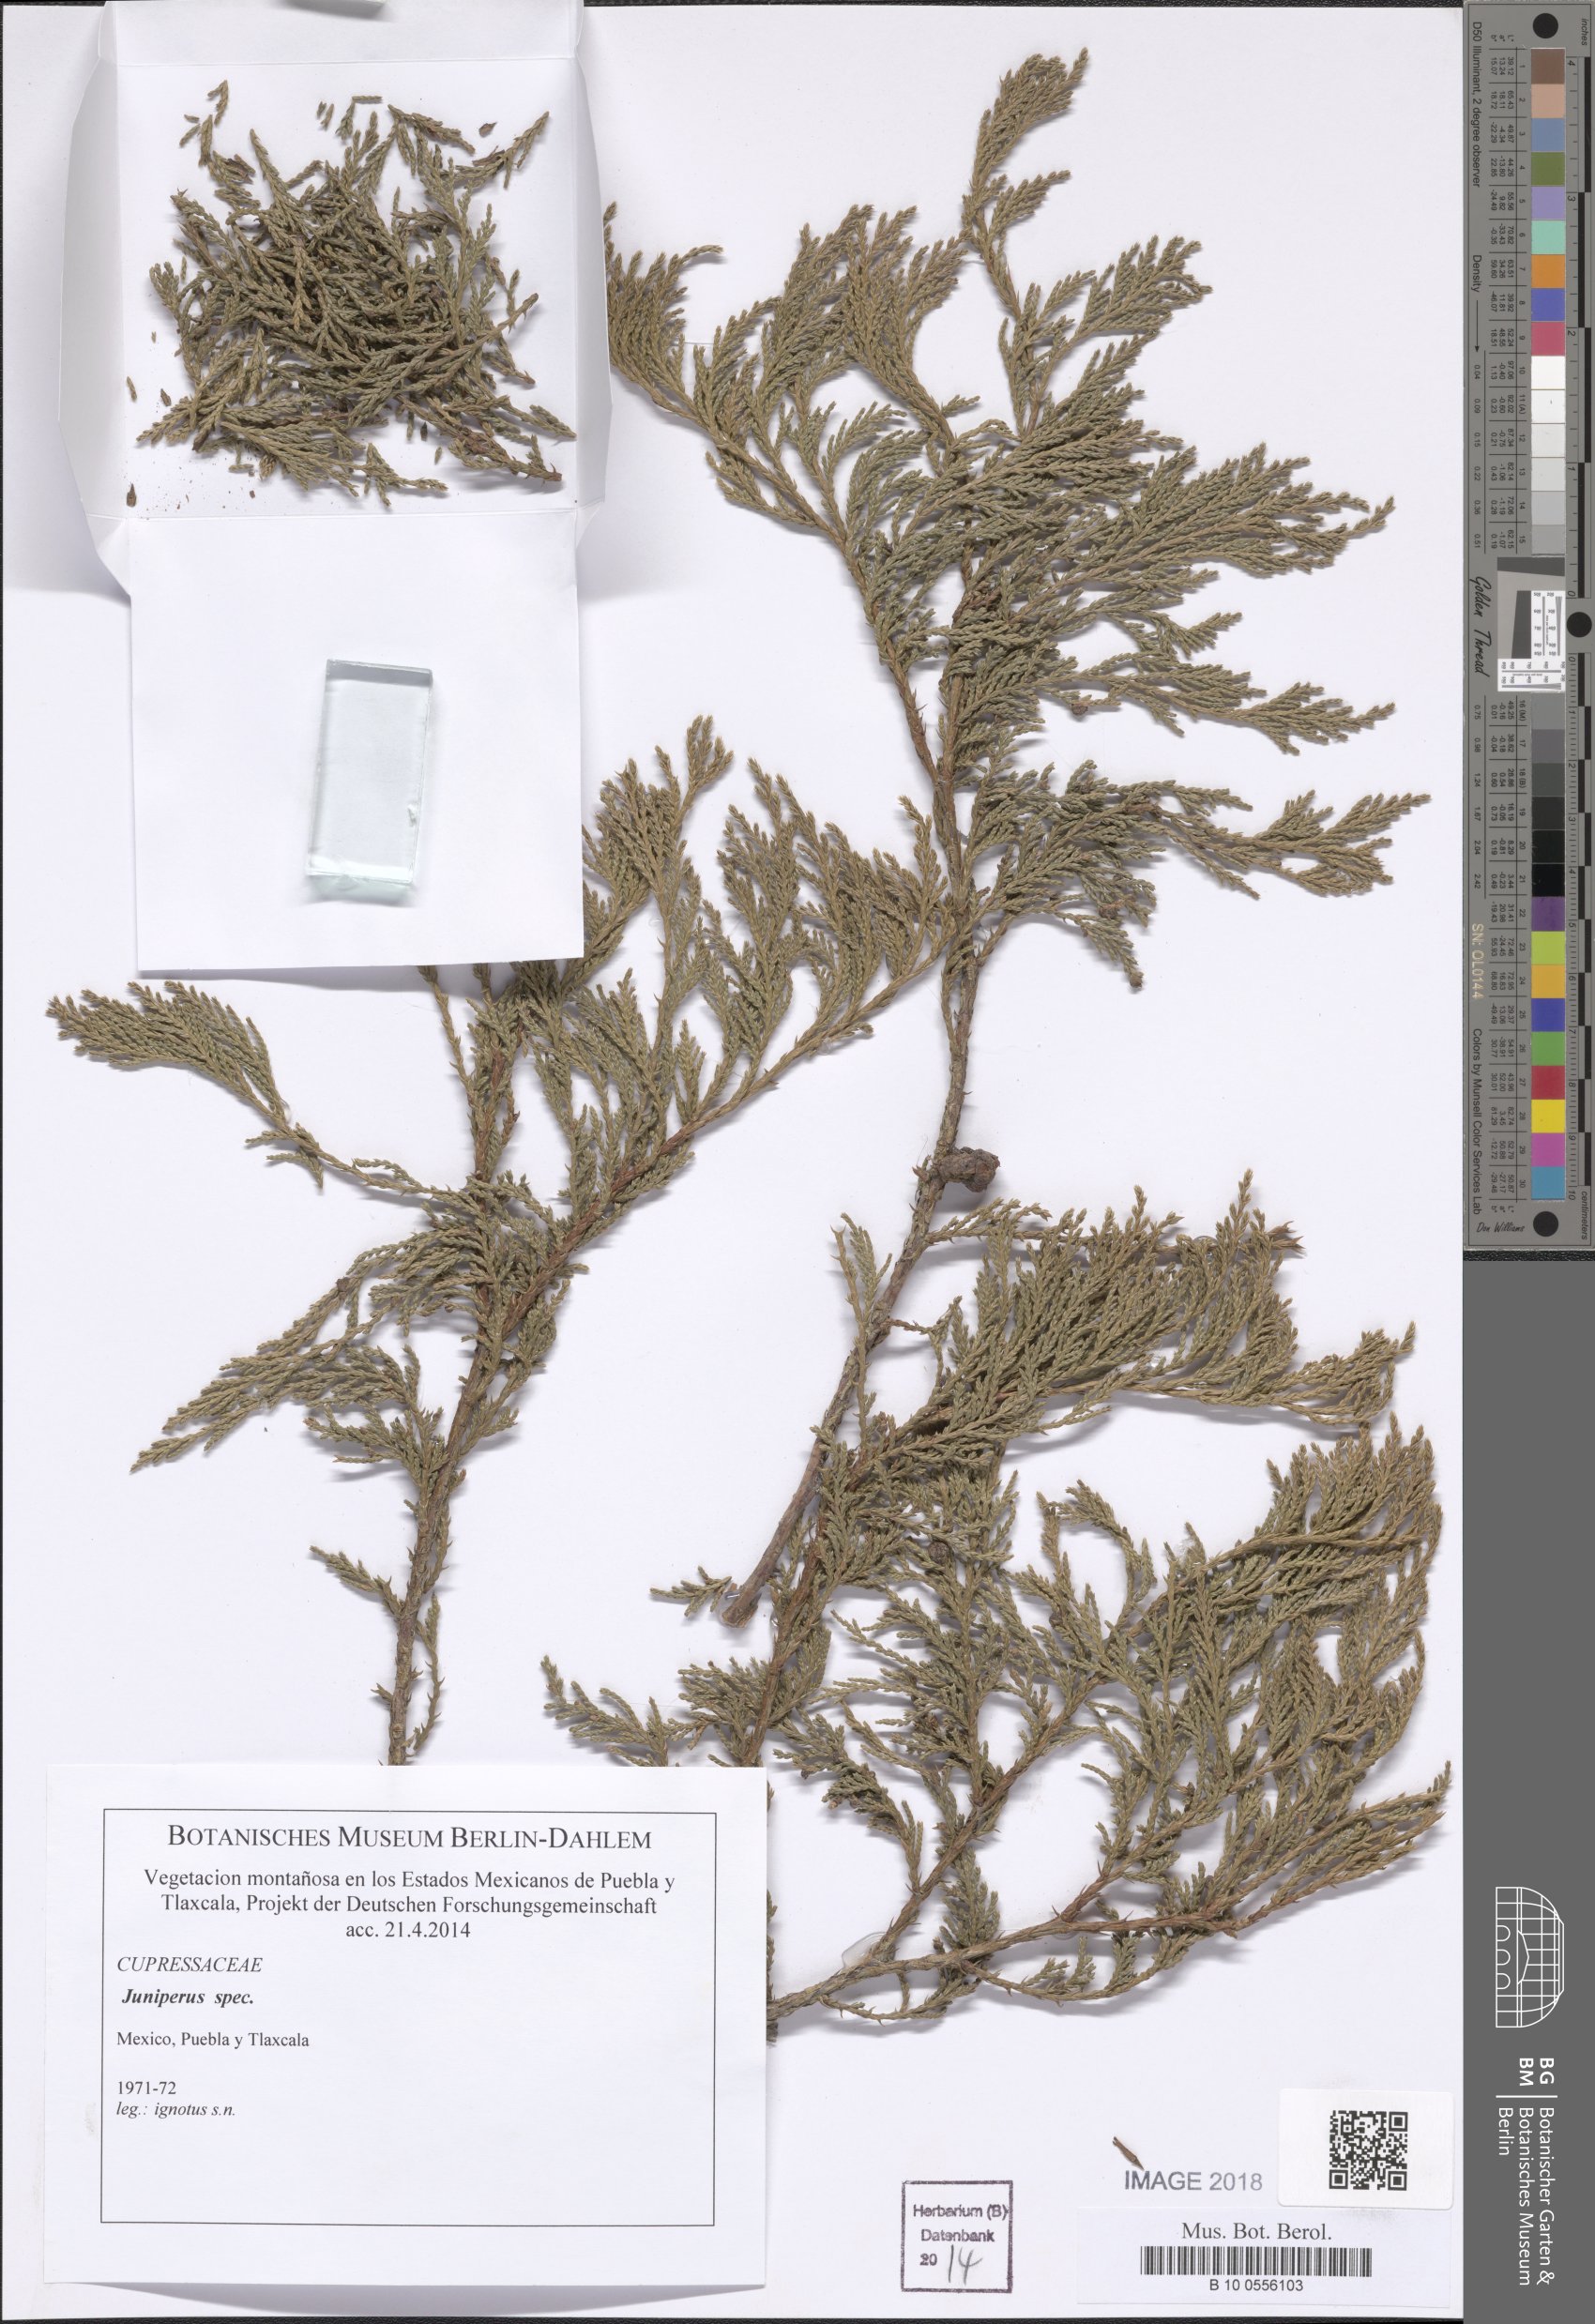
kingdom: Plantae
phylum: Tracheophyta
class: Pinopsida
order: Pinales
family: Cupressaceae
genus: Juniperus
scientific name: Juniperus
